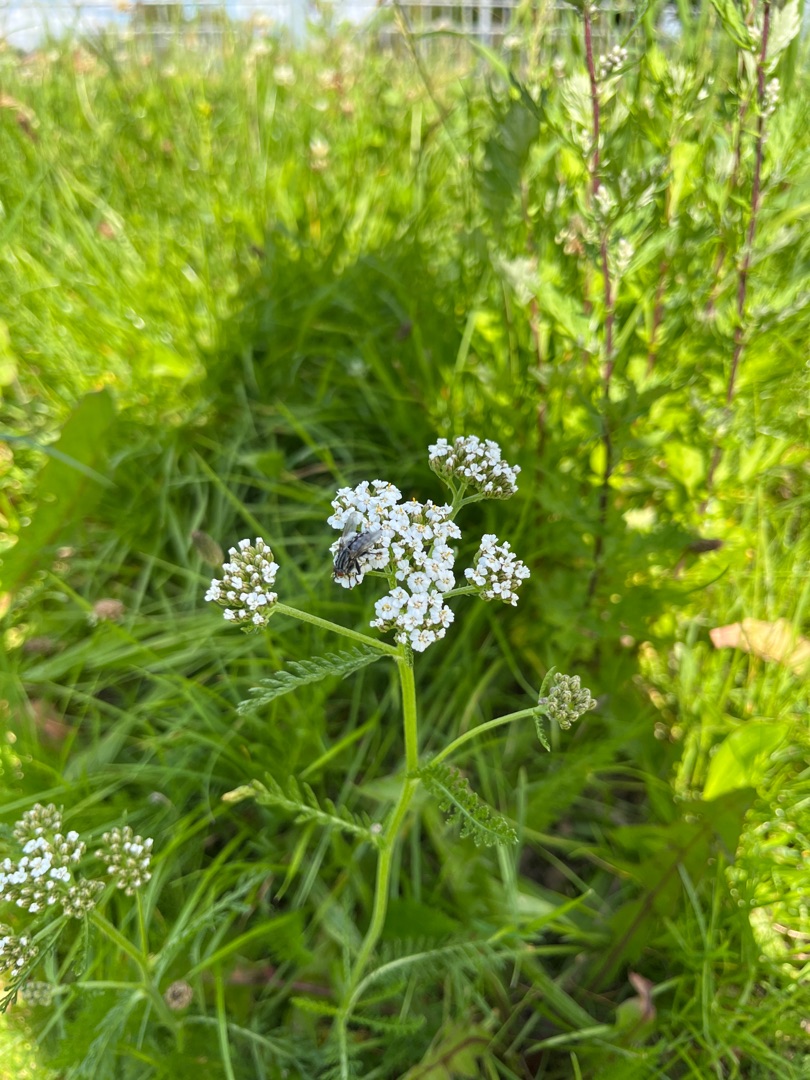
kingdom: Plantae
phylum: Tracheophyta
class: Magnoliopsida
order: Asterales
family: Asteraceae
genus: Achillea
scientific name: Achillea millefolium
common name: Almindelig røllike
